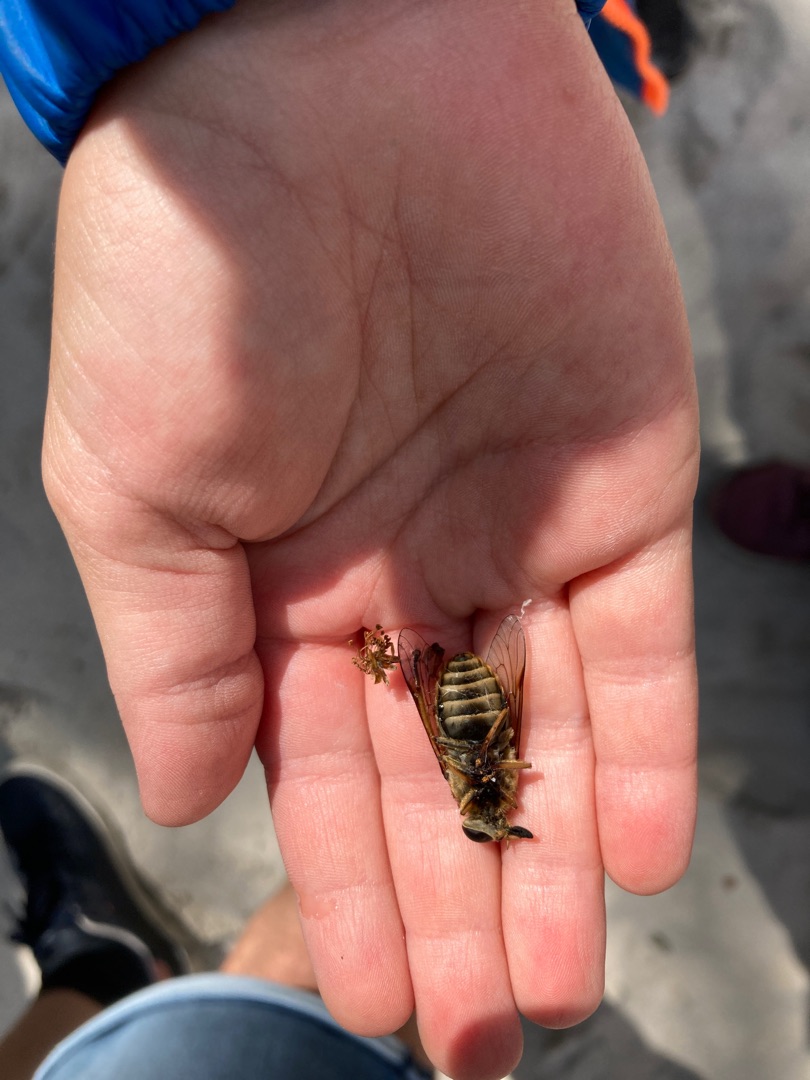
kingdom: Animalia
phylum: Arthropoda
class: Insecta
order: Diptera
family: Tabanidae
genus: Tabanus
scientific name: Tabanus sudeticus
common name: Hesteklæg
